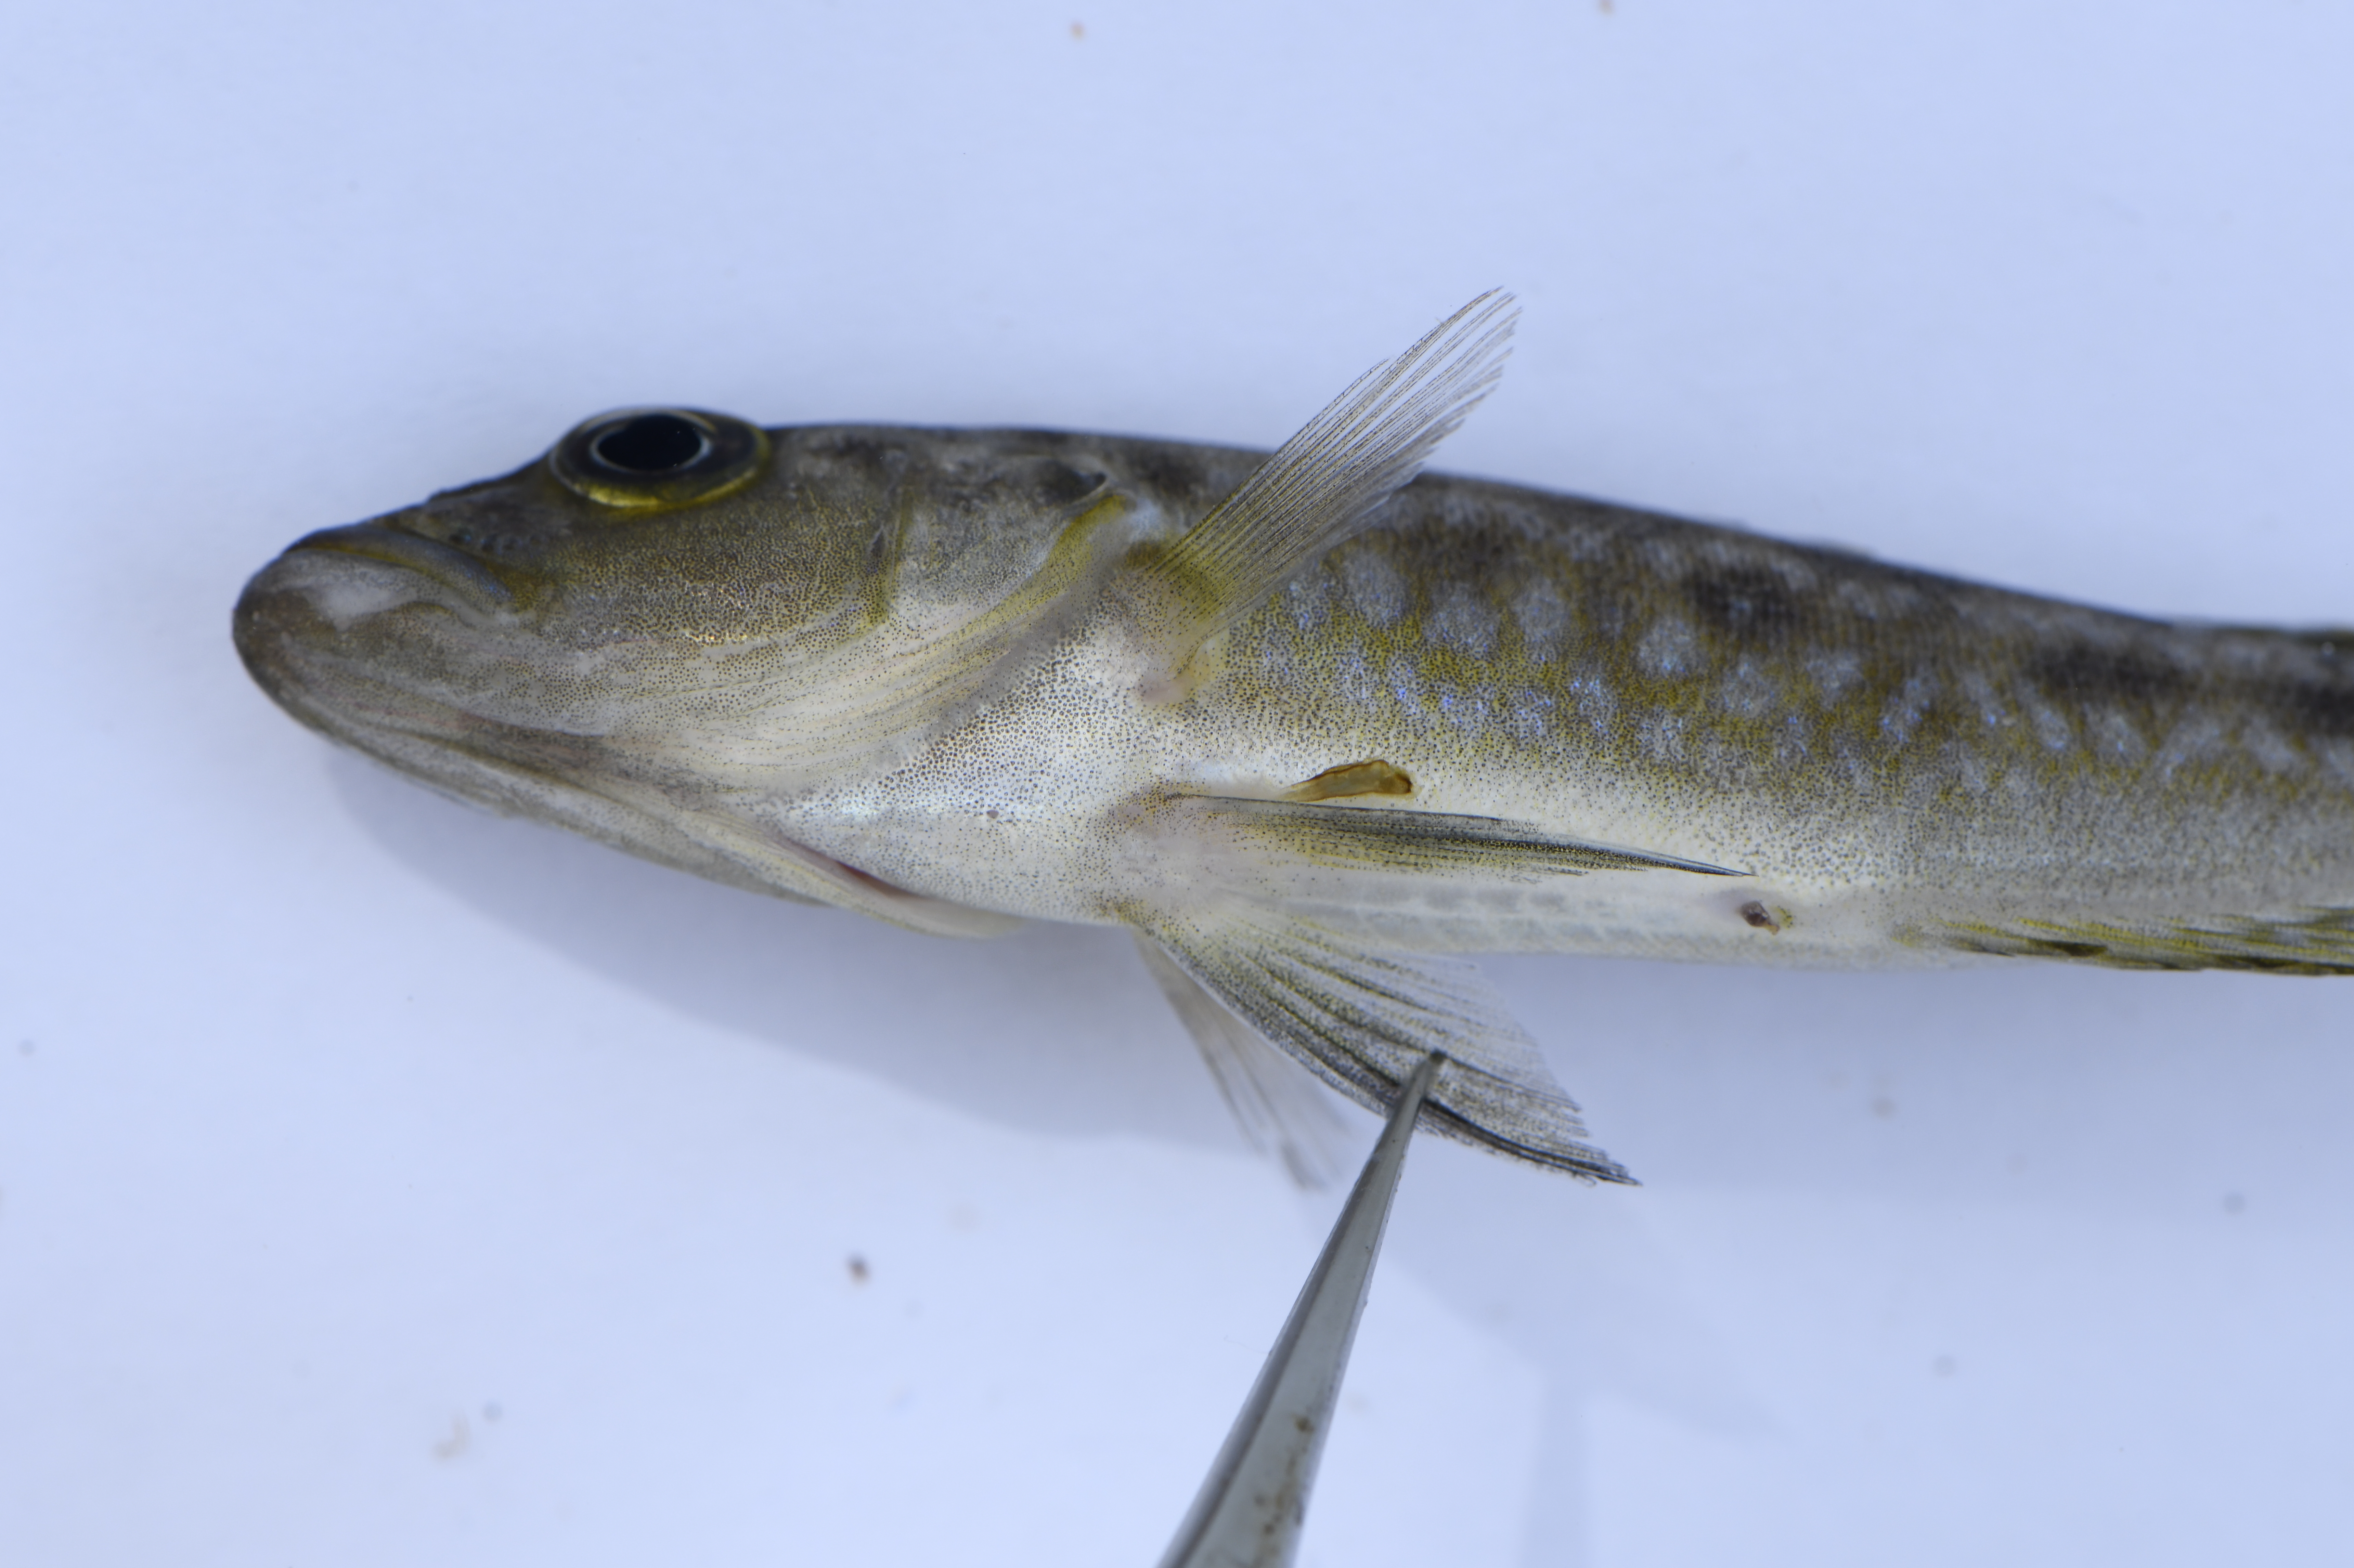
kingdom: Animalia
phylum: Chordata
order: Perciformes
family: Cichlidae
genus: Lepidiolamprologus
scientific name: Lepidiolamprologus elongatus
